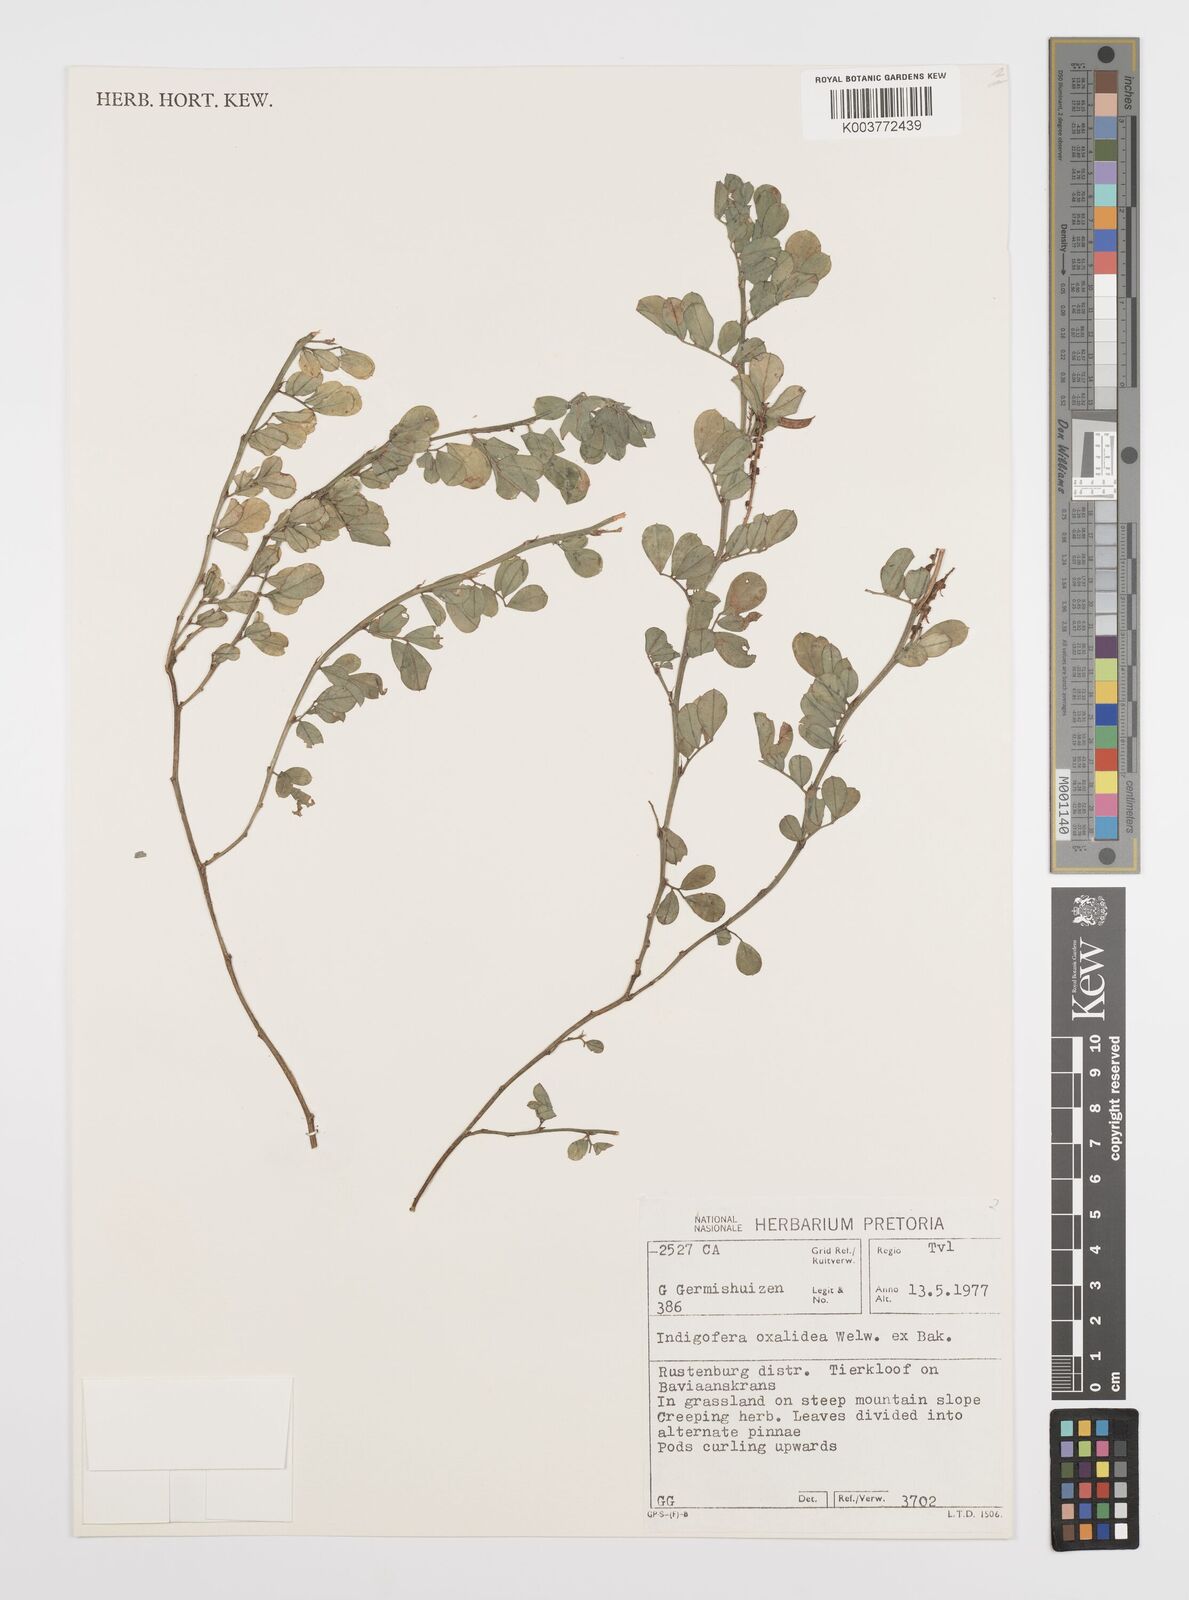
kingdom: Plantae
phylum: Tracheophyta
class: Magnoliopsida
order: Fabales
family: Fabaceae
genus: Indigofera
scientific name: Indigofera oxalidea
